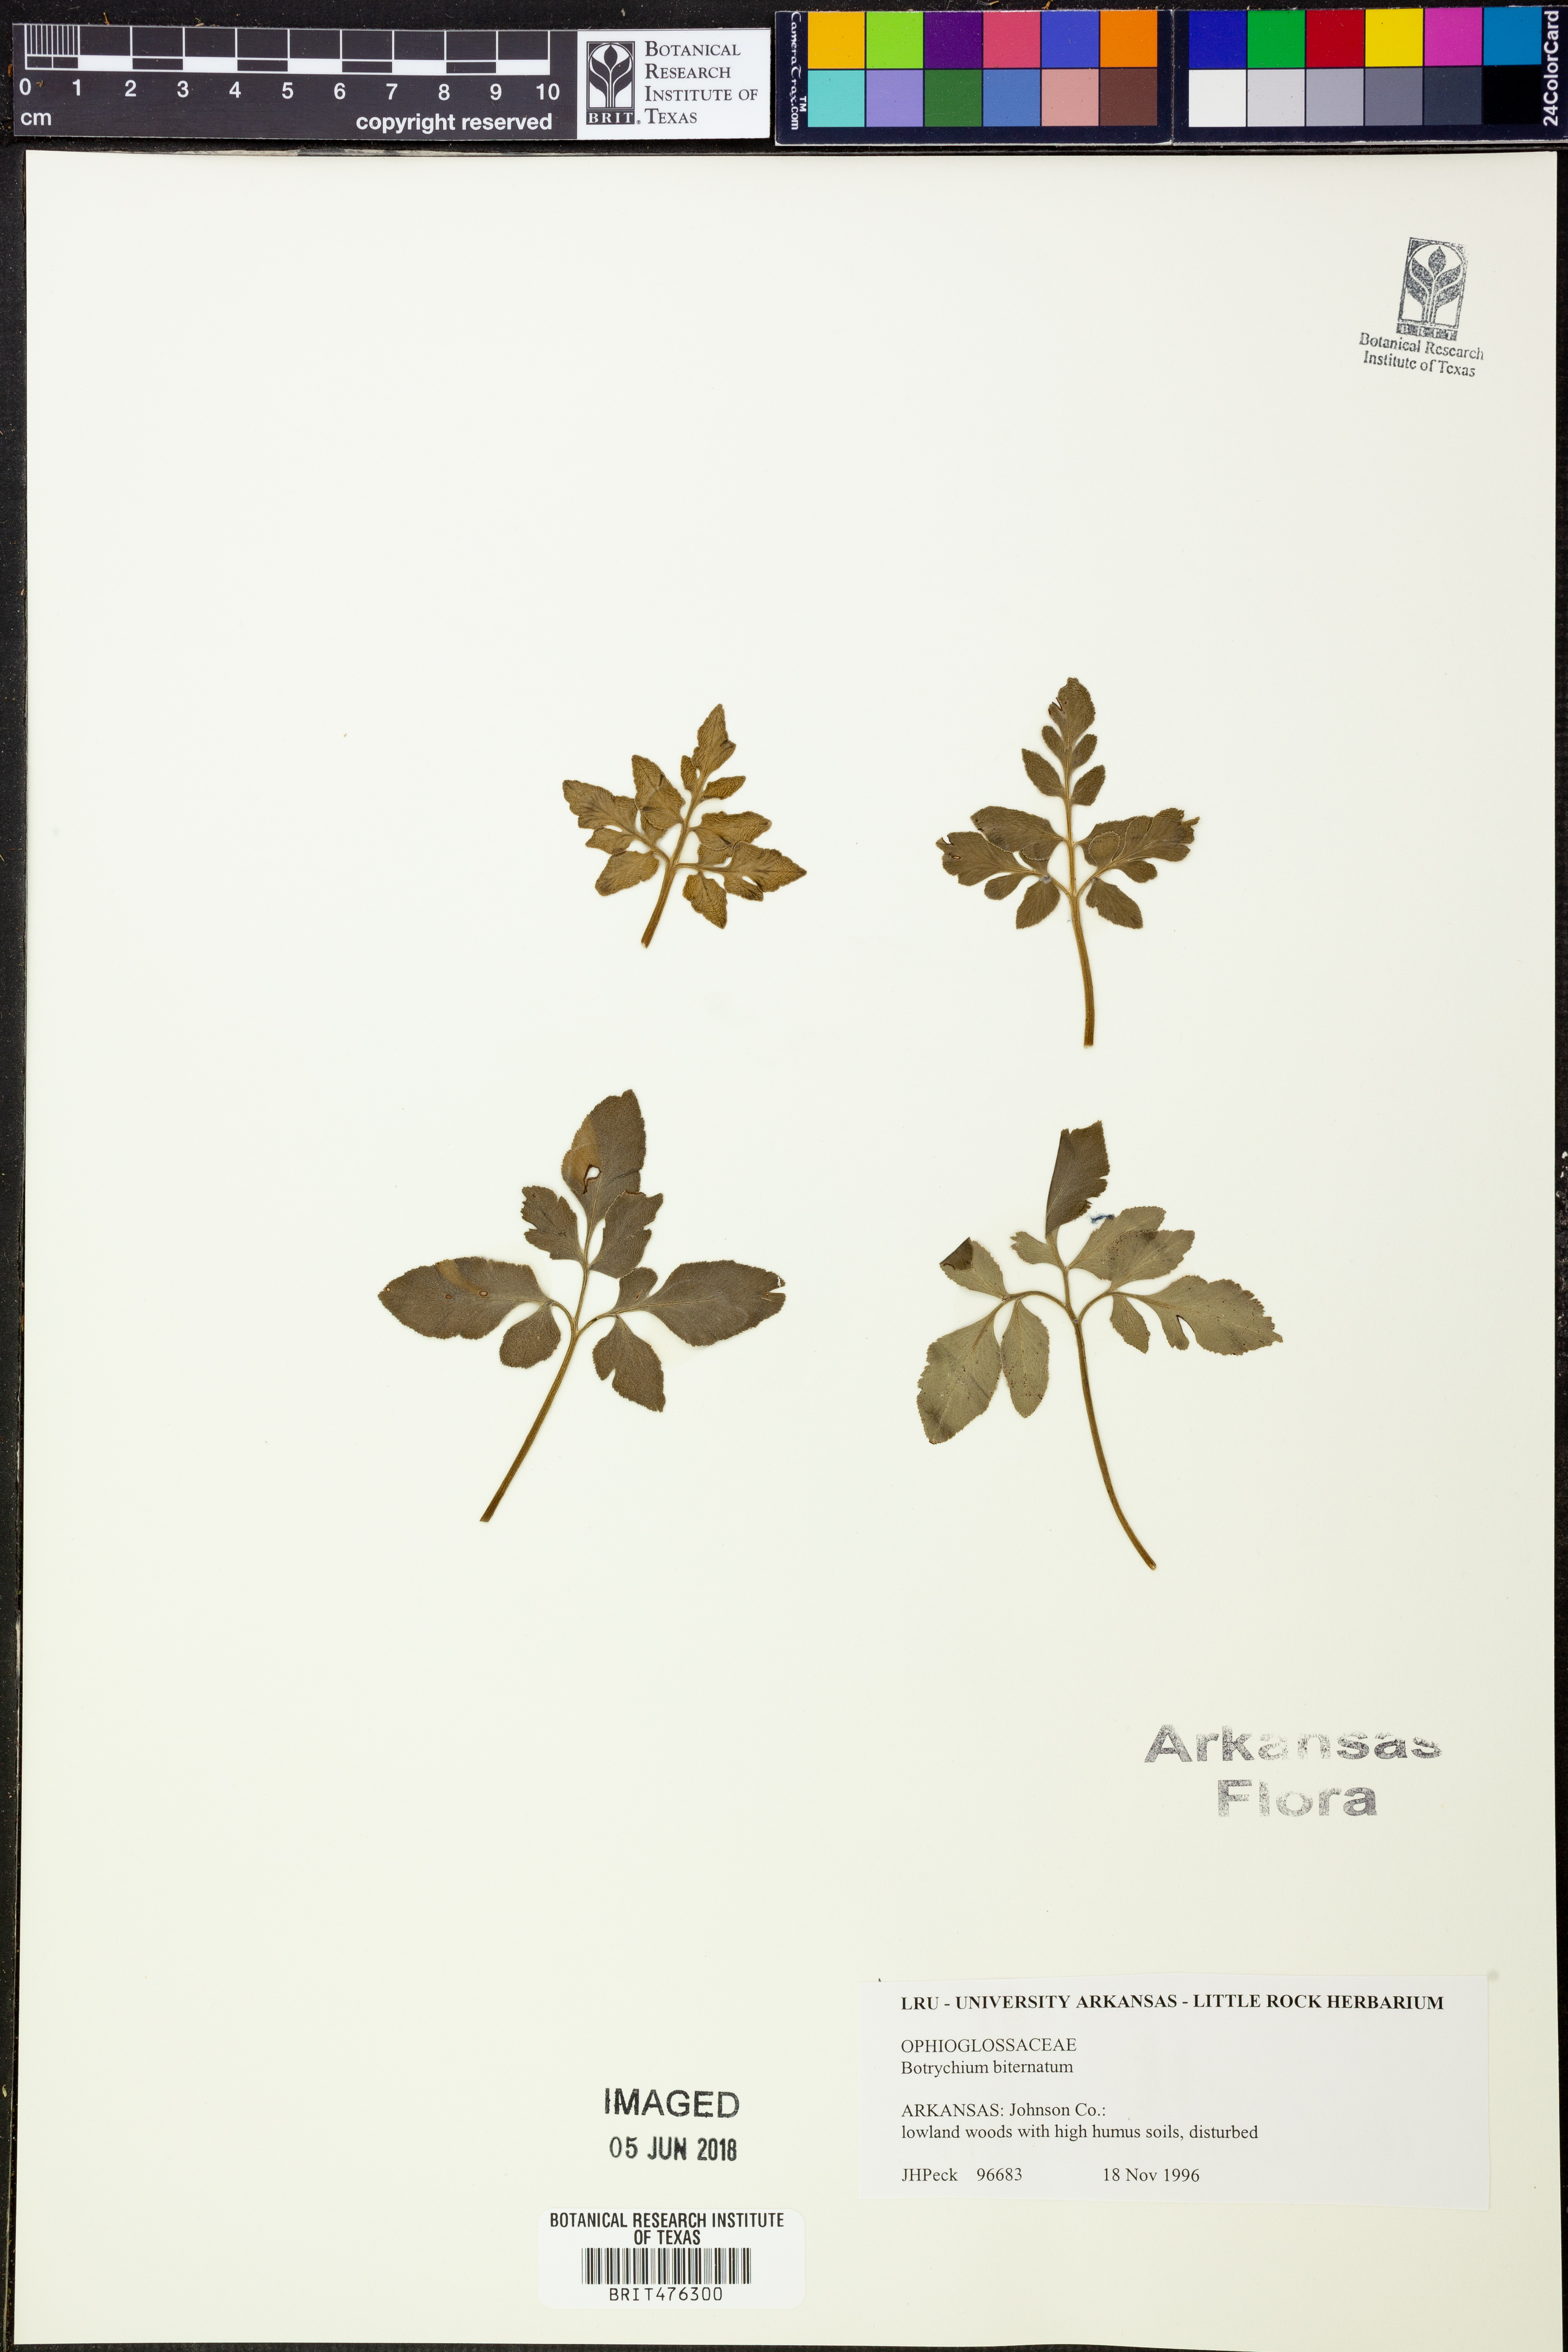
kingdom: Plantae
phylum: Tracheophyta
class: Polypodiopsida
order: Ophioglossales
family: Ophioglossaceae
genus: Sceptridium
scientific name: Sceptridium biternatum
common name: Sparse-lobed grapefern
